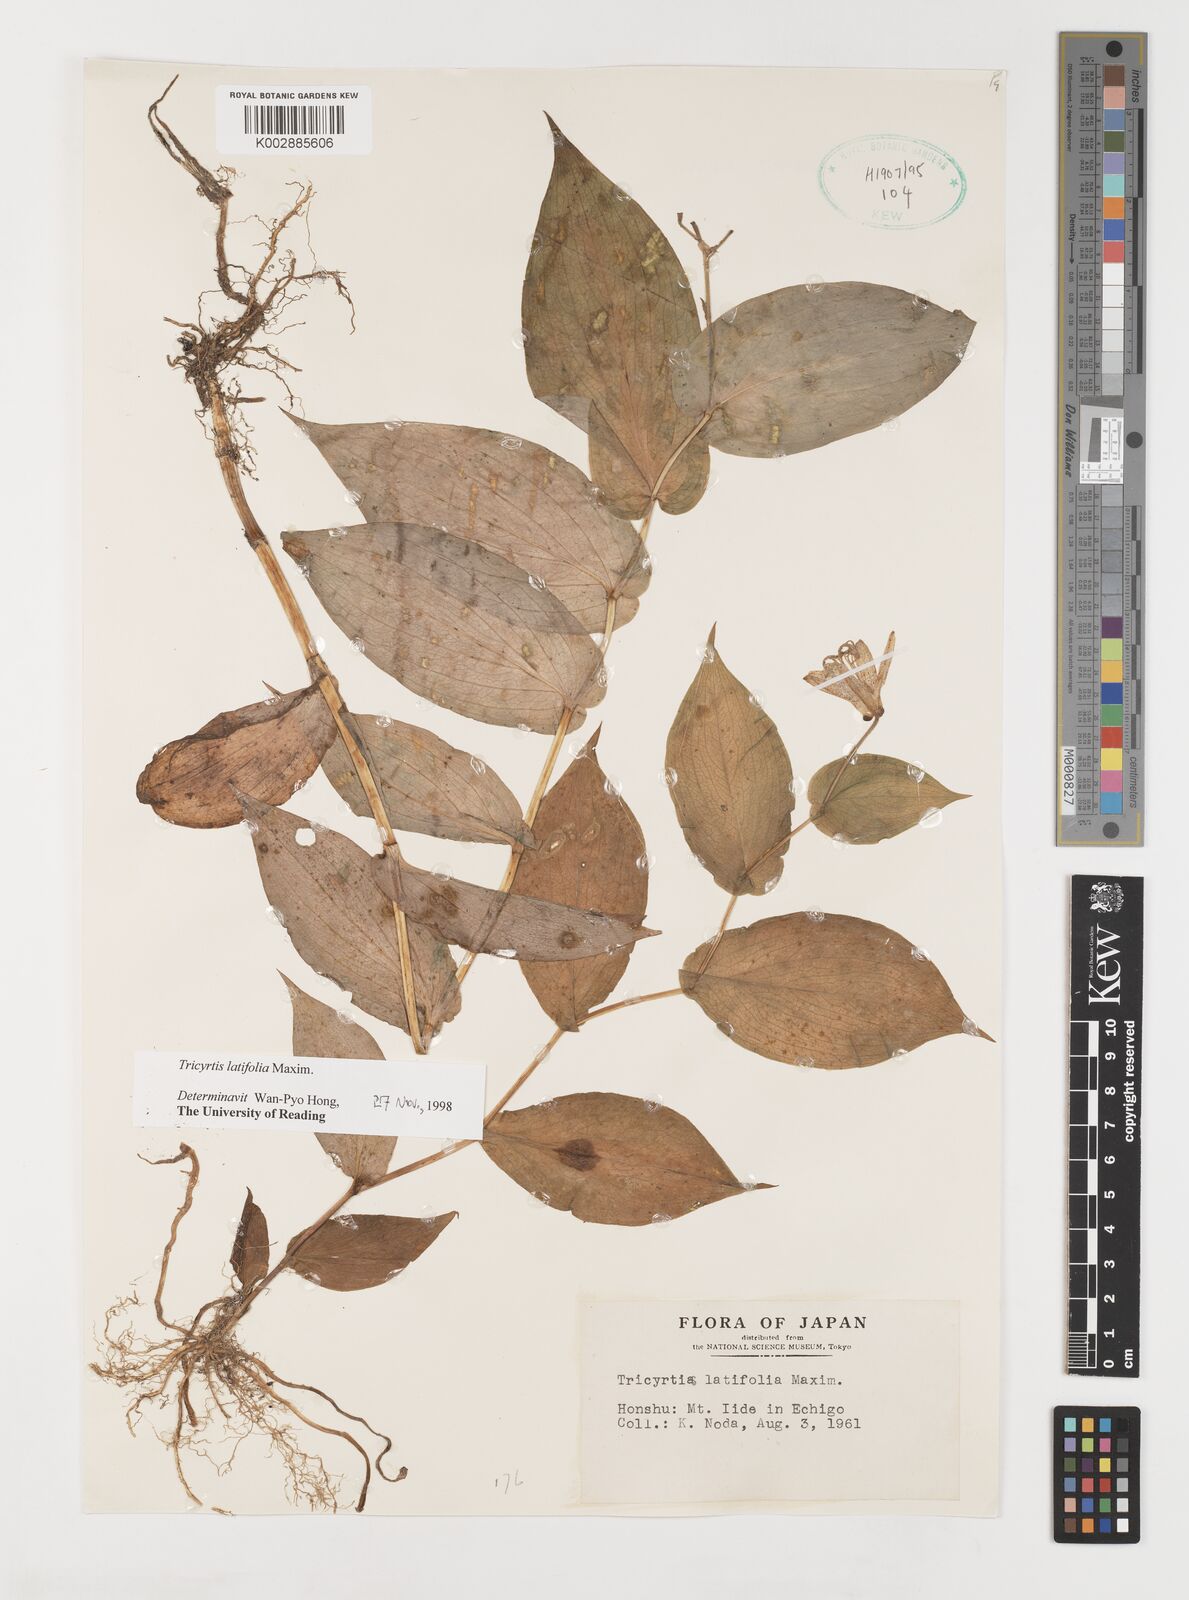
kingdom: Plantae
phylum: Tracheophyta
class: Liliopsida
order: Liliales
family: Liliaceae
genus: Tricyrtis
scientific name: Tricyrtis latifolia
